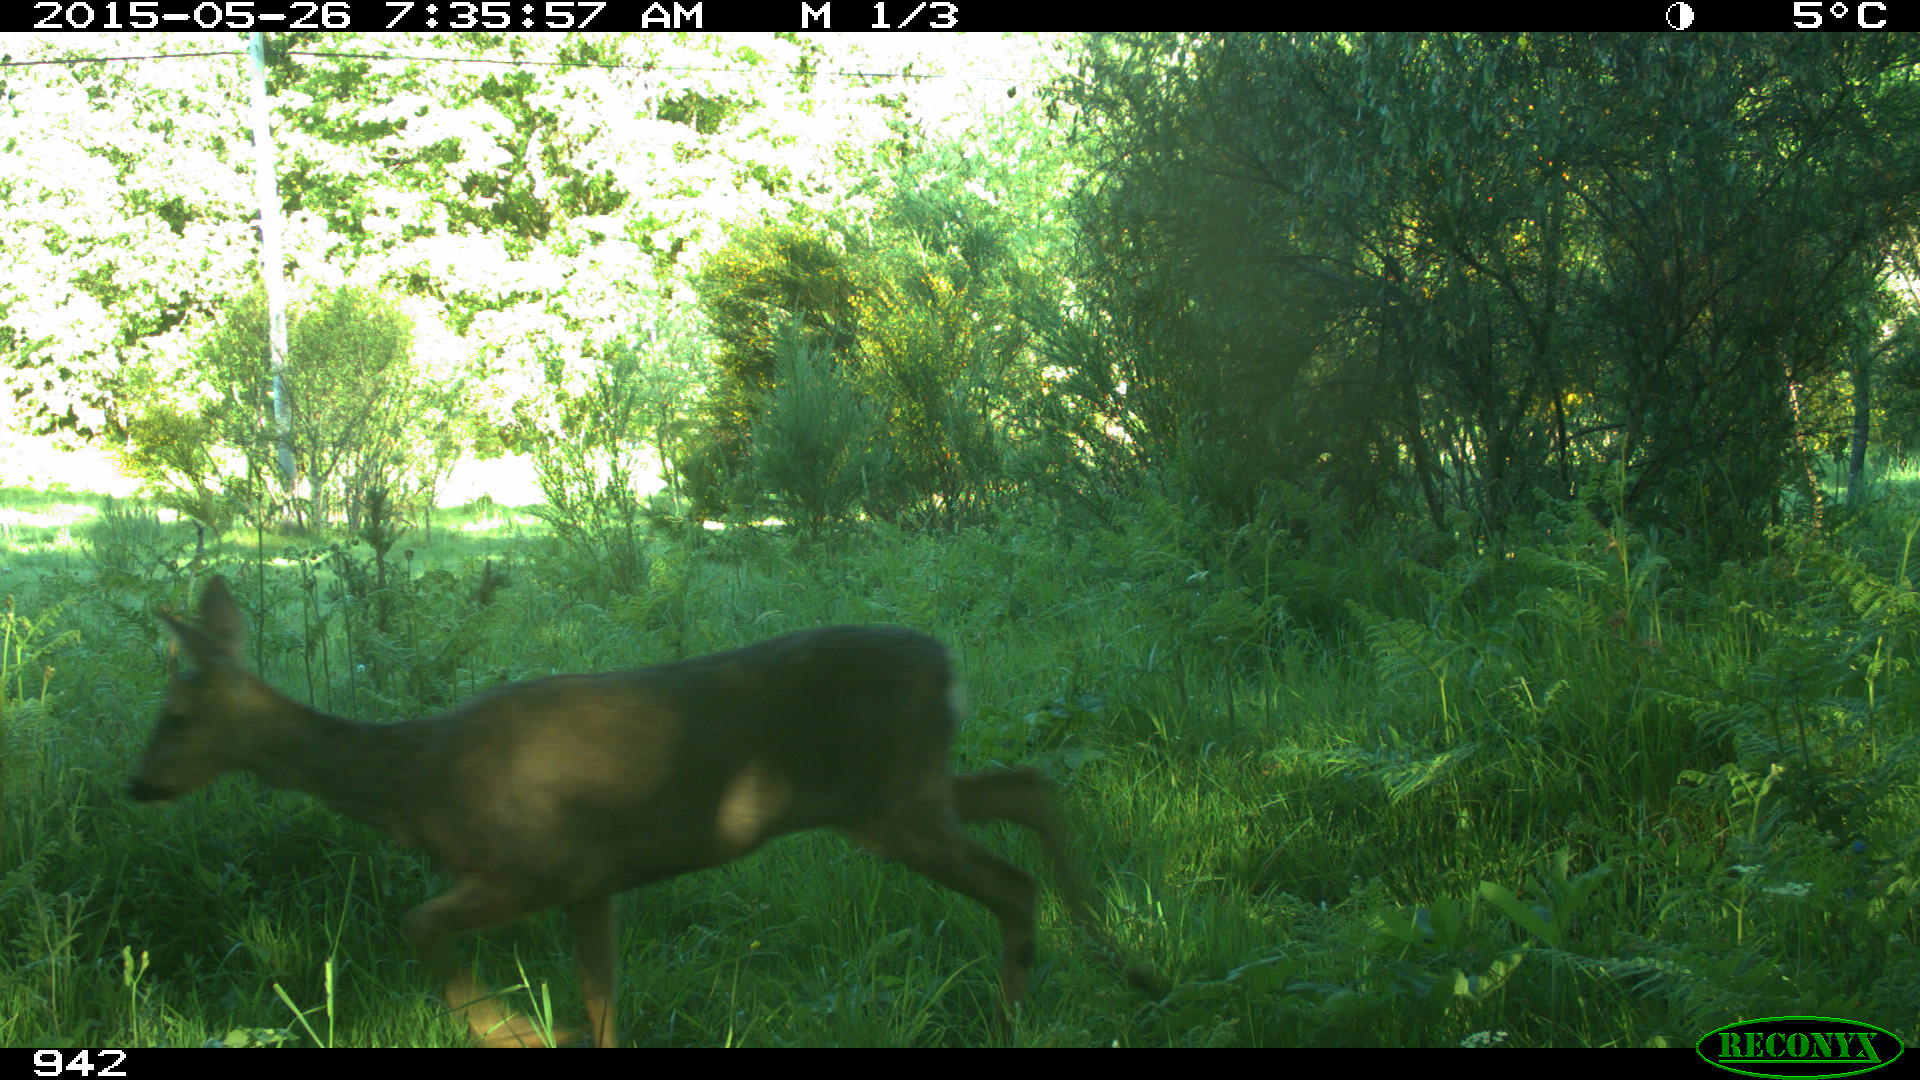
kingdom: Animalia
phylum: Chordata
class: Mammalia
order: Artiodactyla
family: Cervidae
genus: Capreolus
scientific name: Capreolus capreolus
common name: Western roe deer
